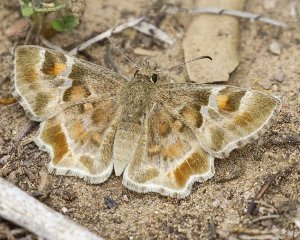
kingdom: Animalia
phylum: Arthropoda
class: Insecta
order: Lepidoptera
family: Hesperiidae
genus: Systasea
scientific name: Systasea zampa
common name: Arizona Powdered-Skipper
